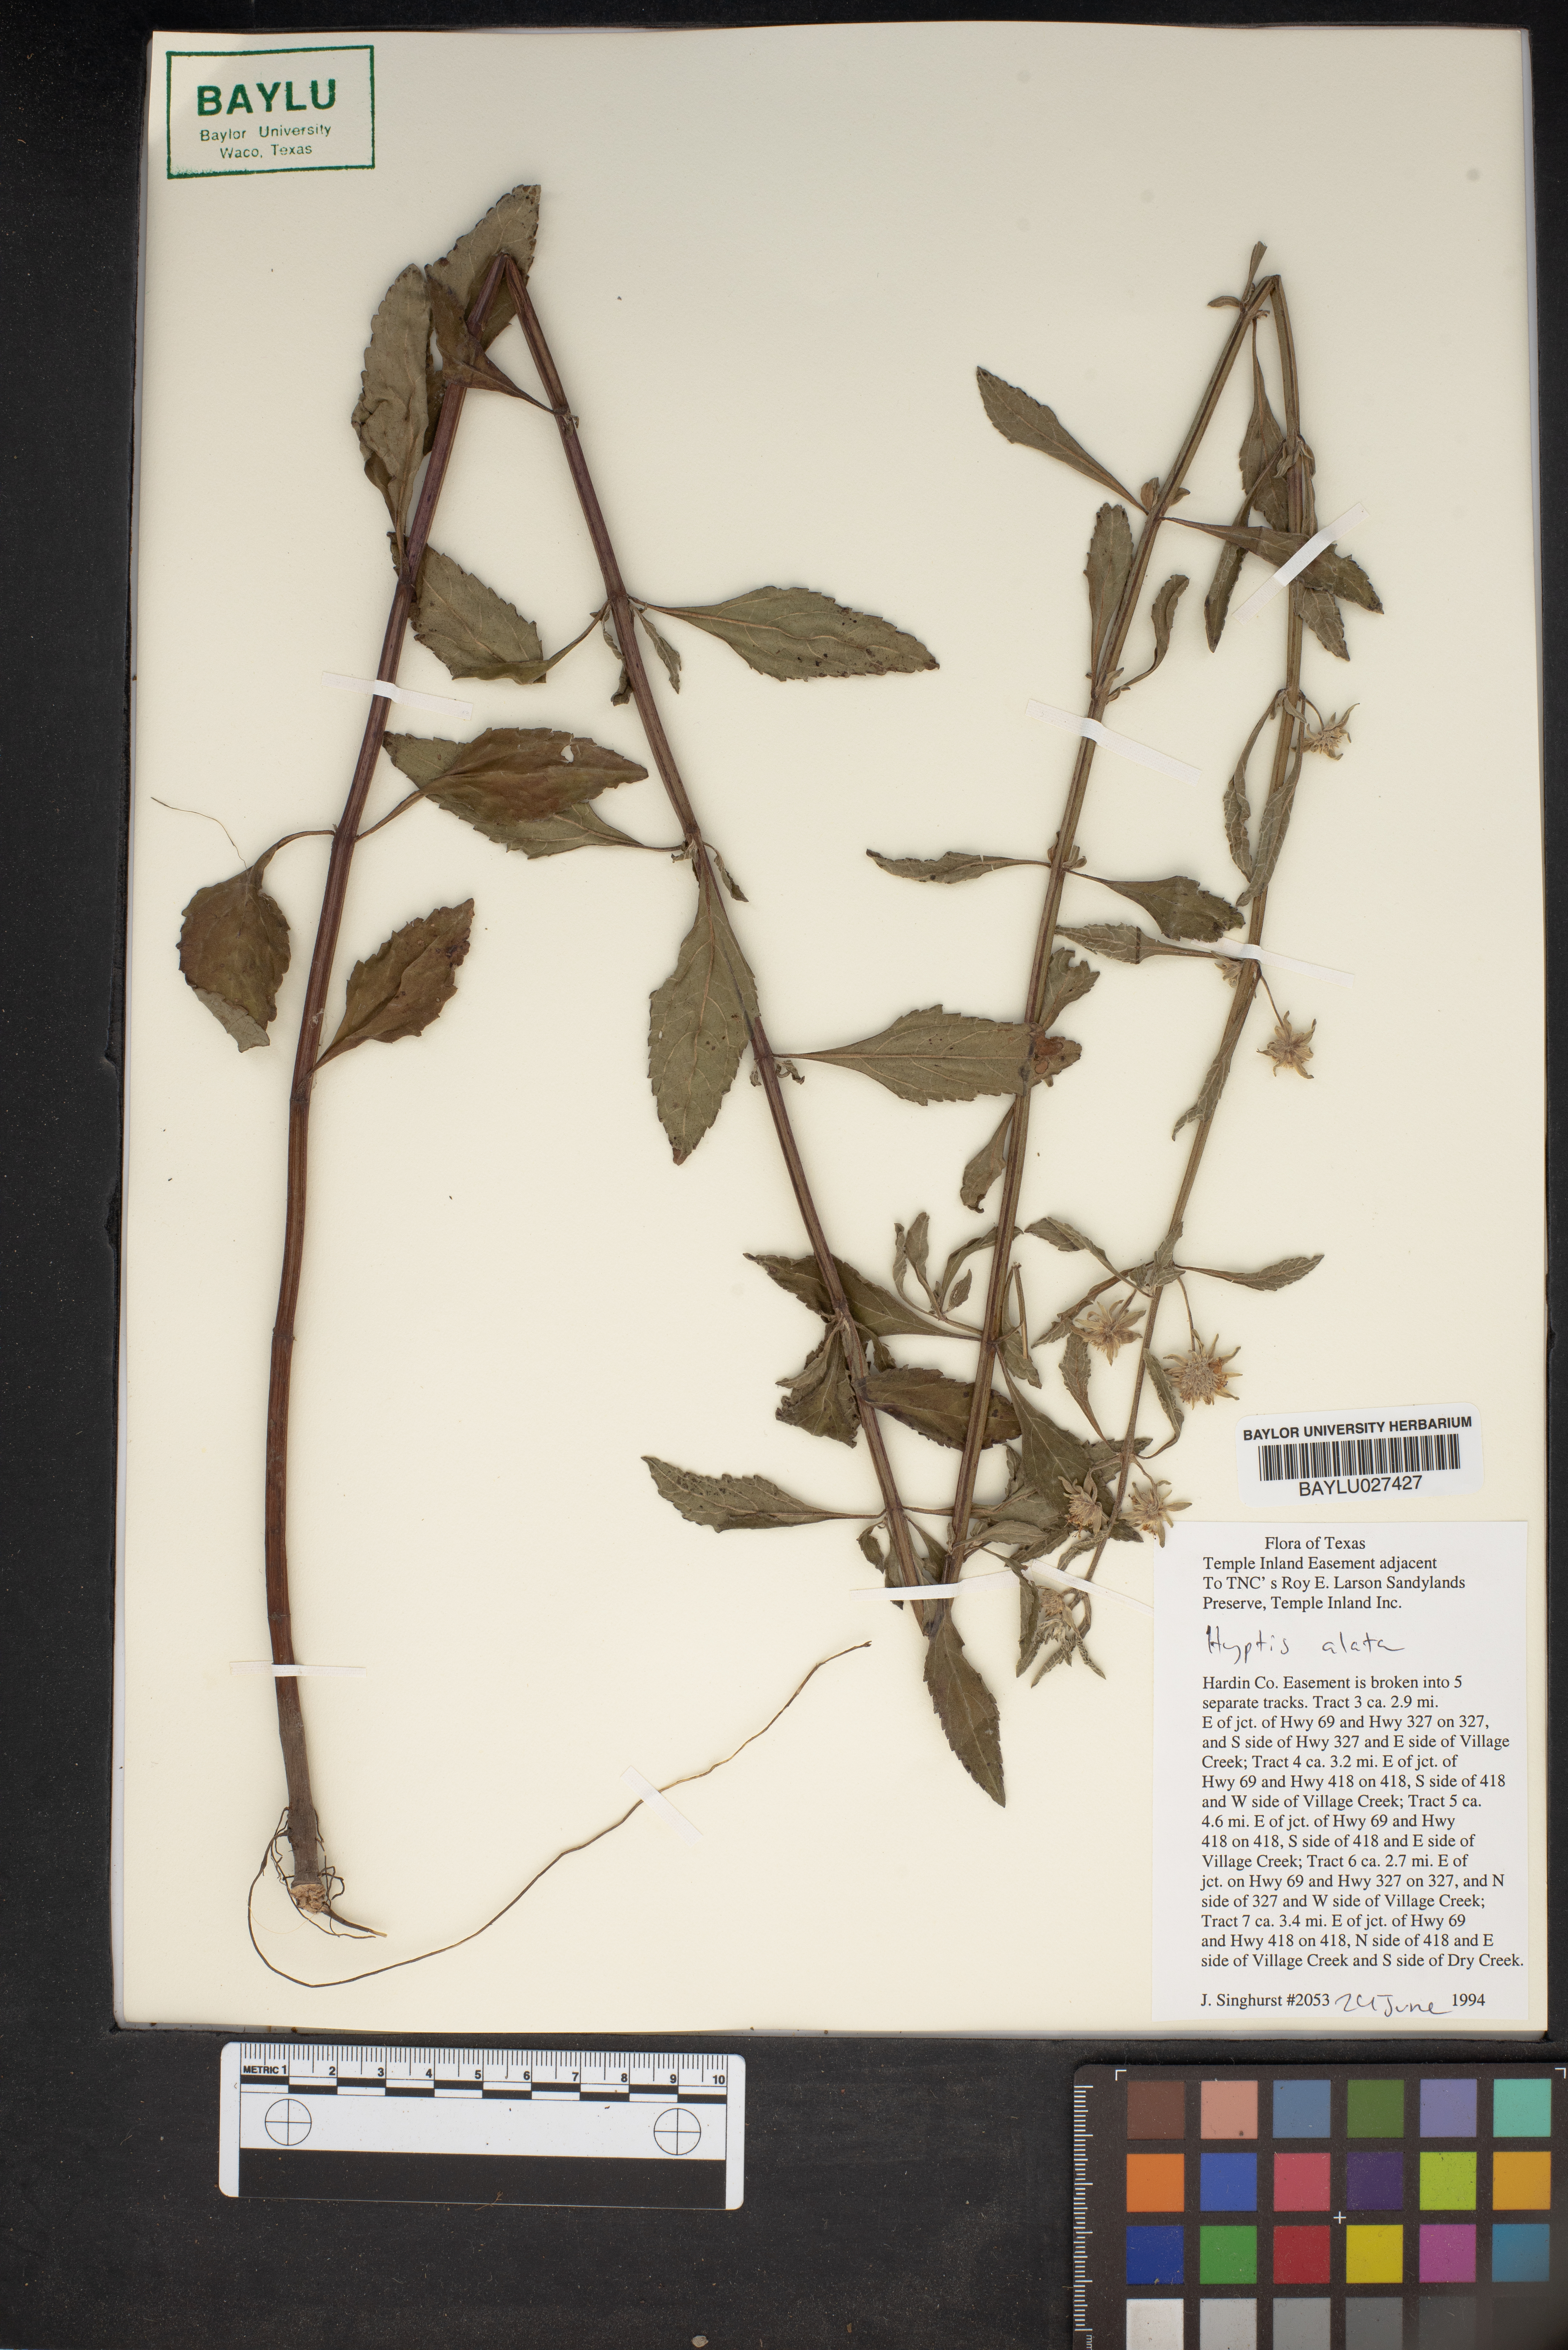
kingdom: Plantae
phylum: Tracheophyta
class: Magnoliopsida
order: Lamiales
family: Lamiaceae
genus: Hyptis
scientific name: Hyptis alata
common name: Cluster bush-mint
